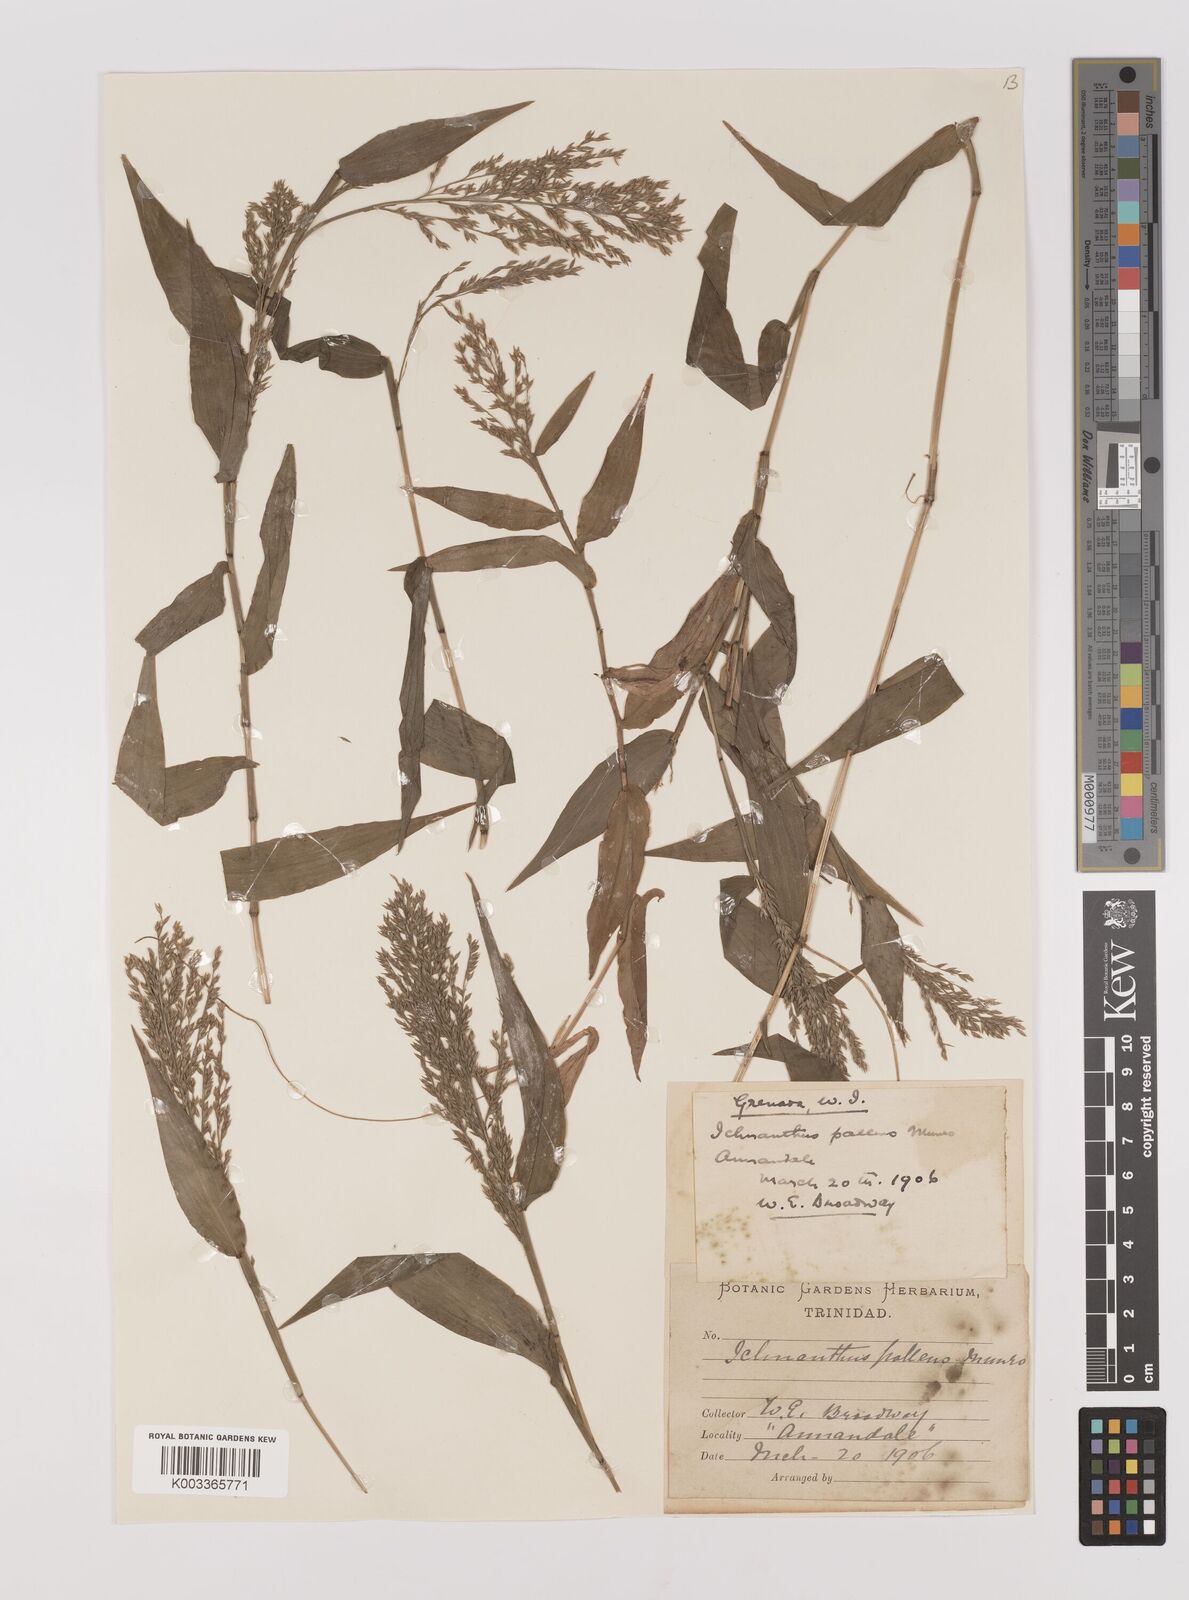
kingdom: Plantae
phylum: Tracheophyta
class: Liliopsida
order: Poales
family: Poaceae
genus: Ichnanthus
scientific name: Ichnanthus pallens
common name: Water grass
